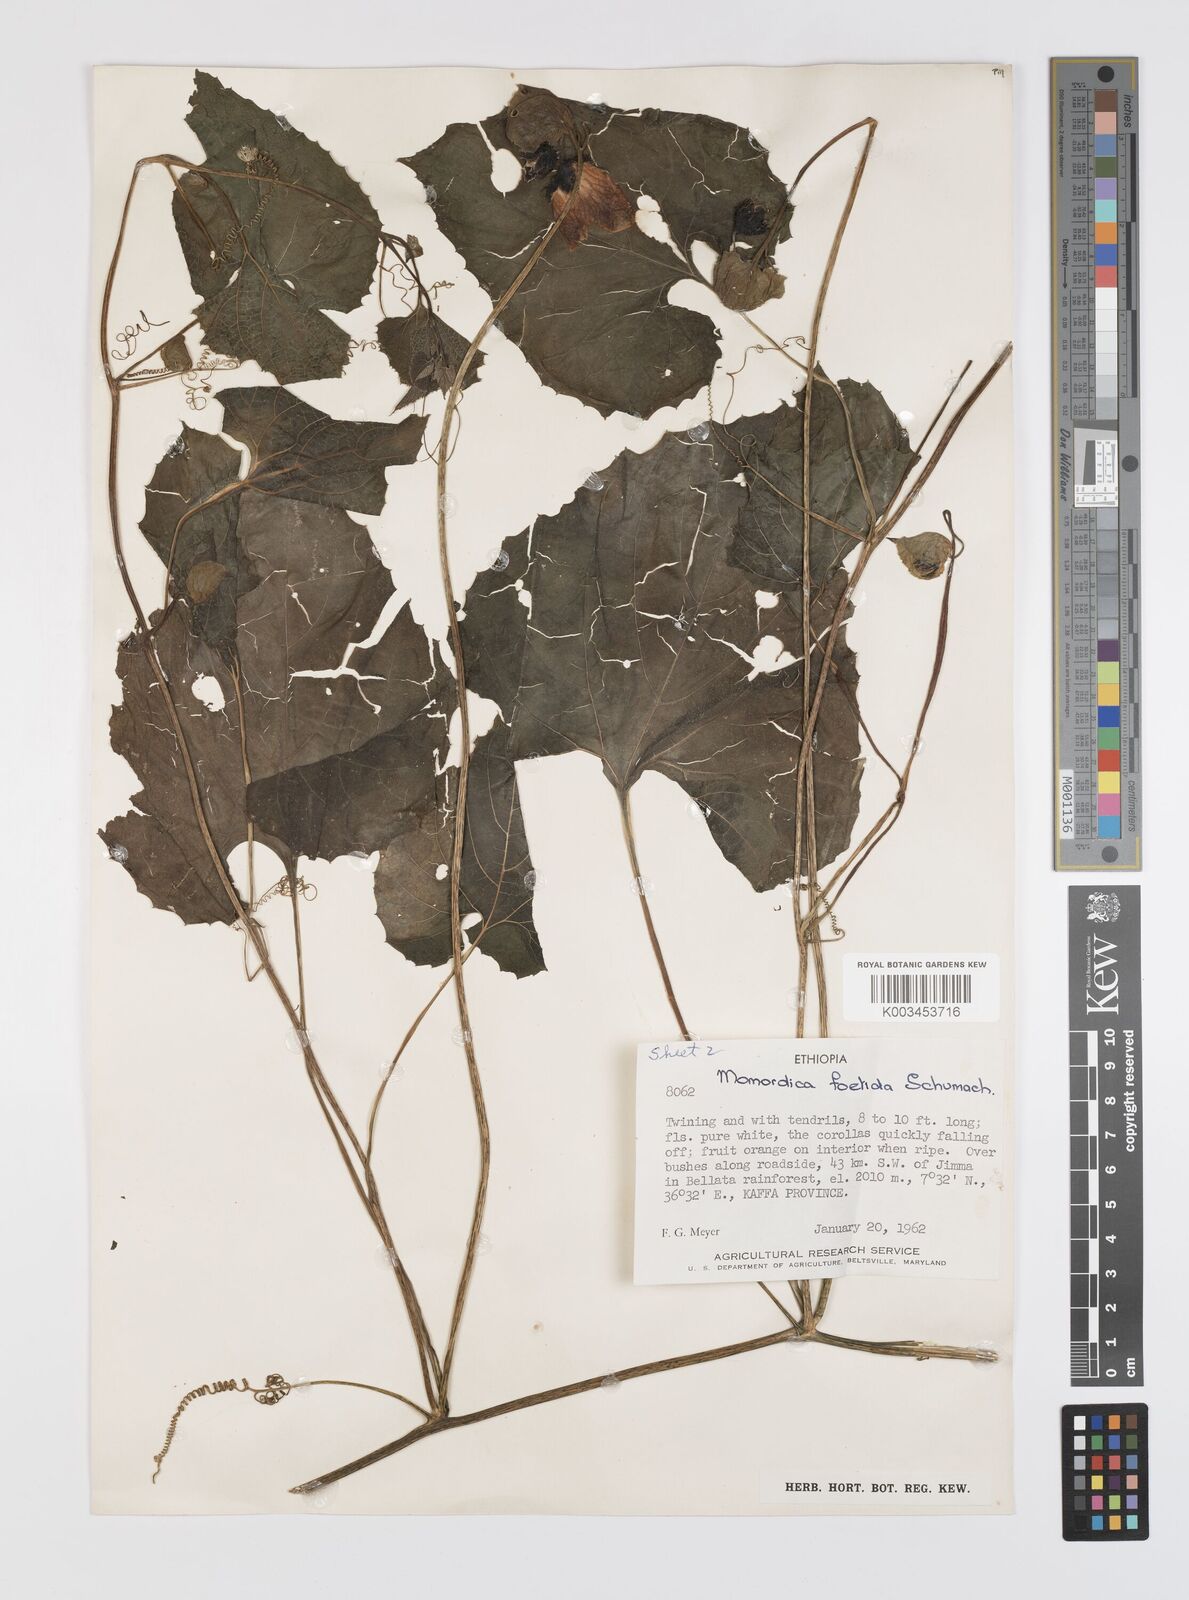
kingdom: Plantae
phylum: Tracheophyta
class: Magnoliopsida
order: Cucurbitales
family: Cucurbitaceae
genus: Momordica
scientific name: Momordica foetida
